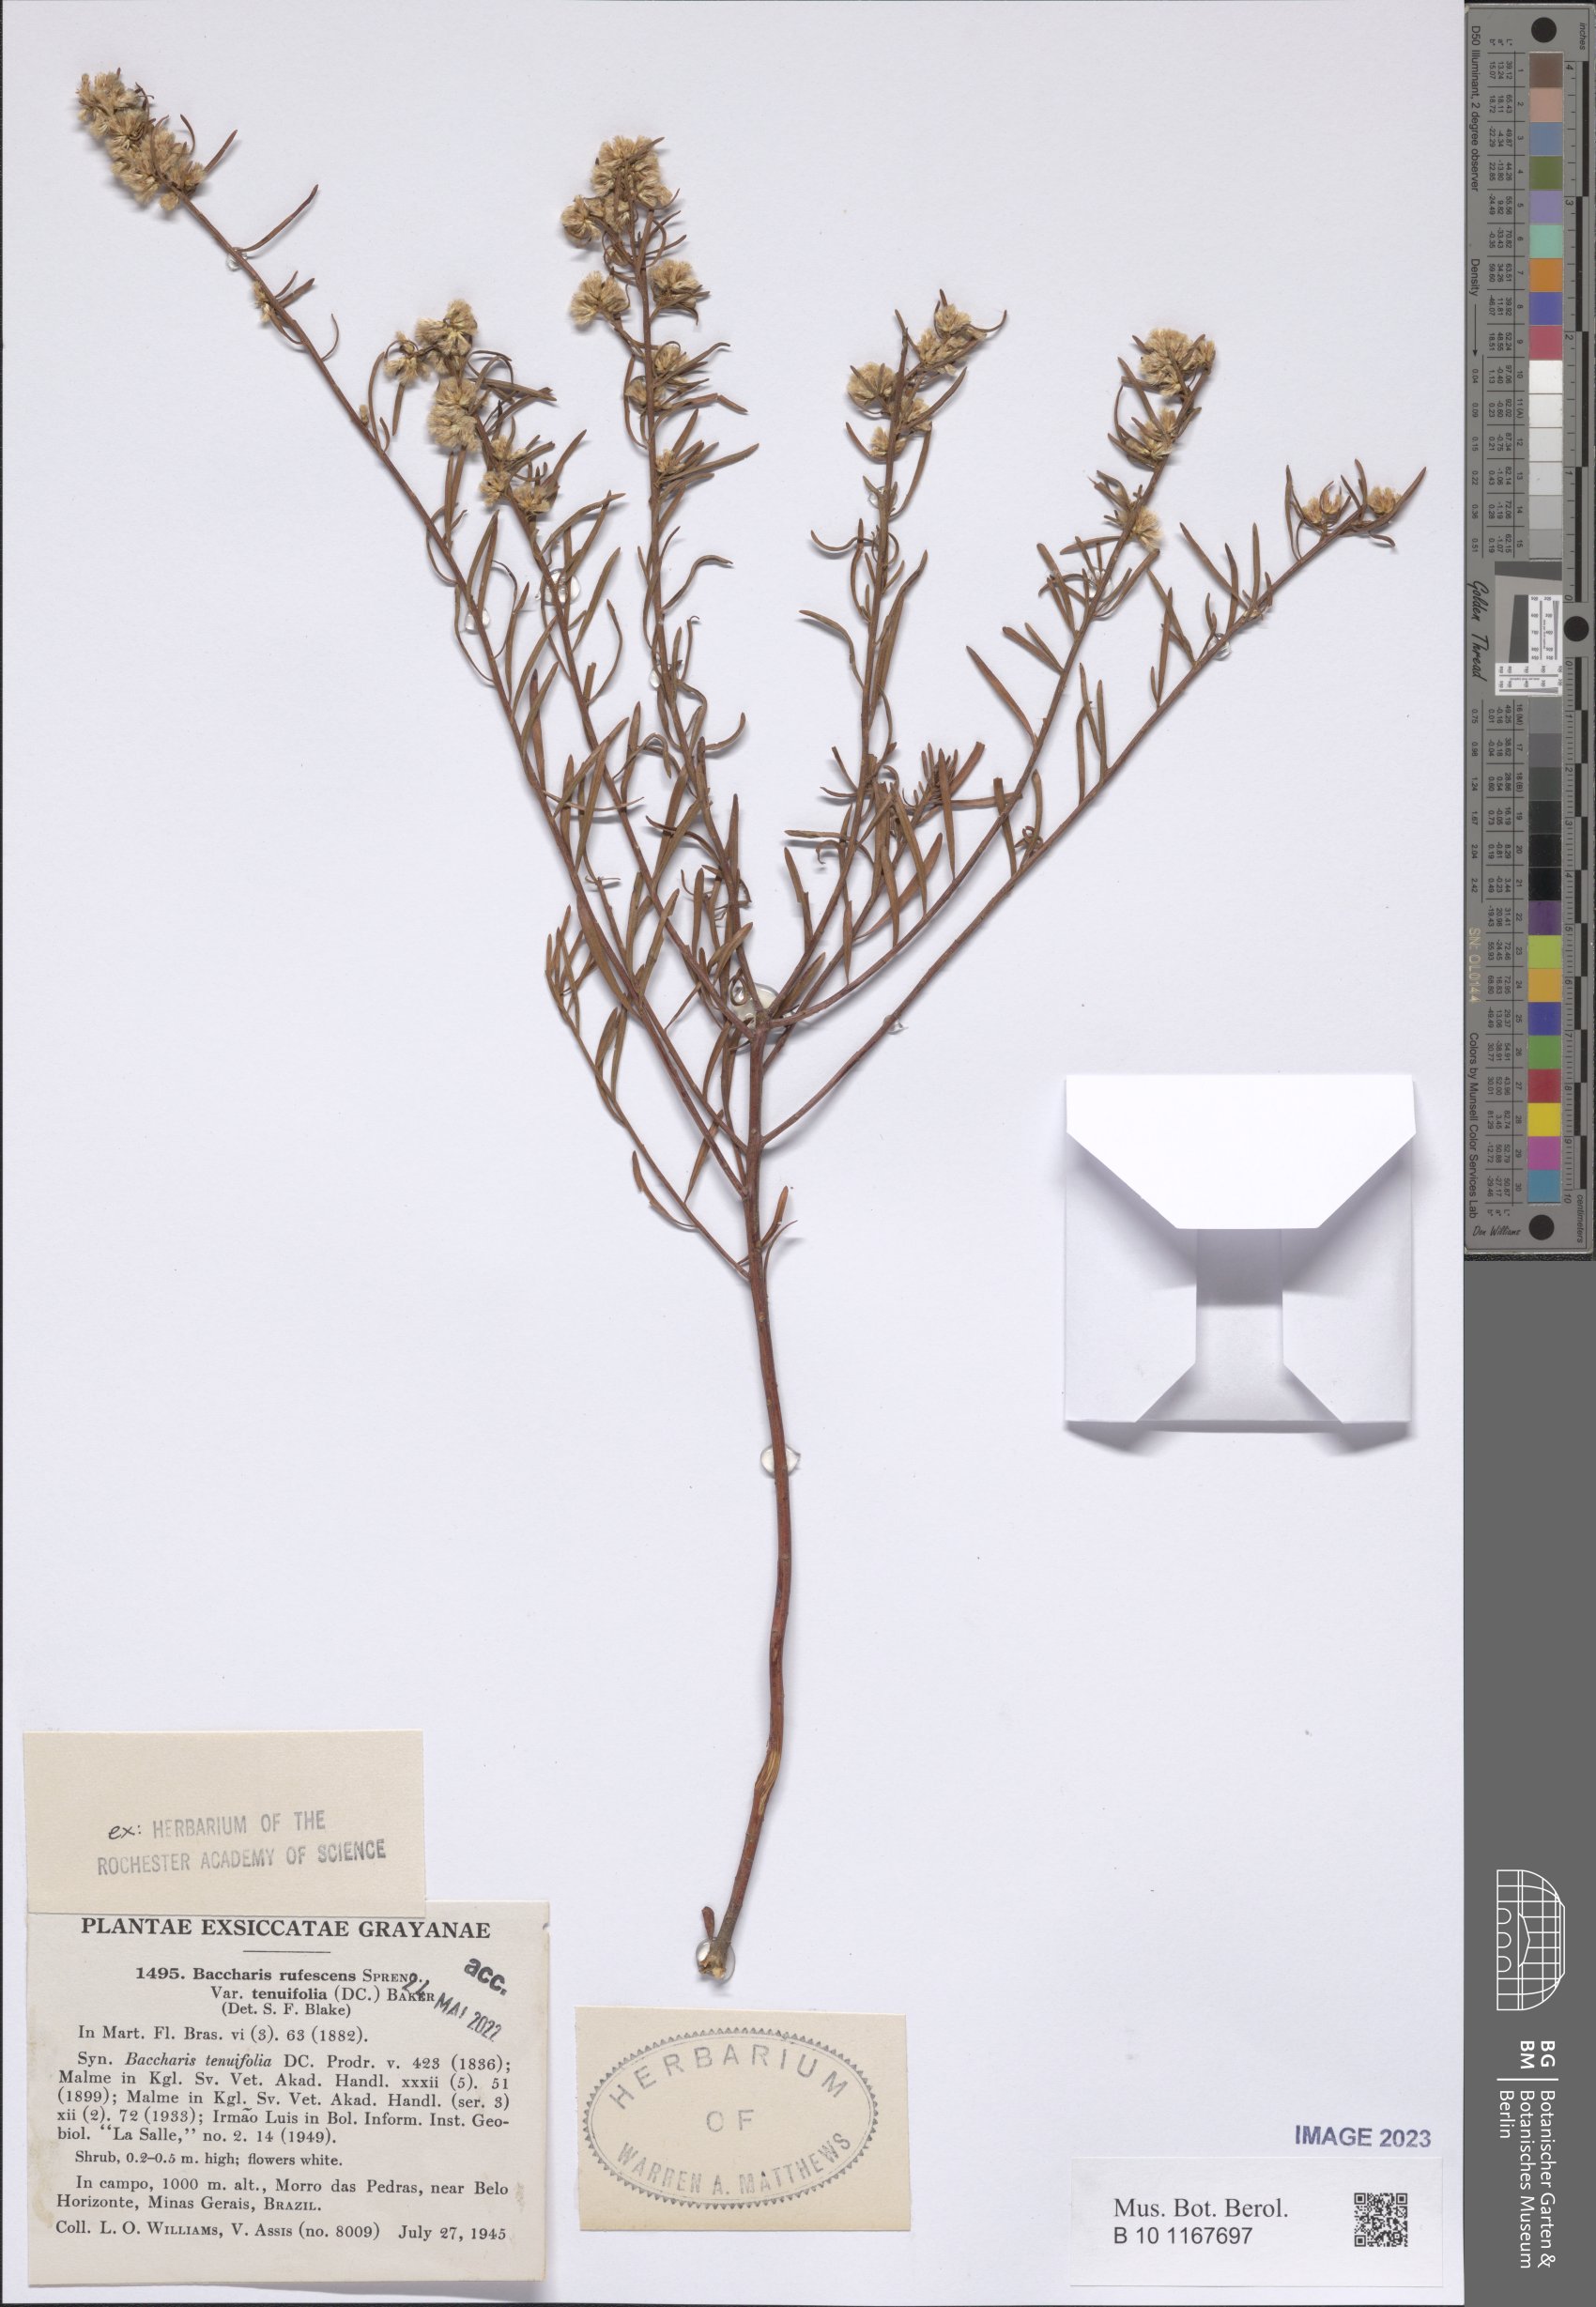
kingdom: Plantae
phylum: Tracheophyta
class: Magnoliopsida
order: Asterales
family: Asteraceae
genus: Baccharis
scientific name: Baccharis pseudotenuifolia
